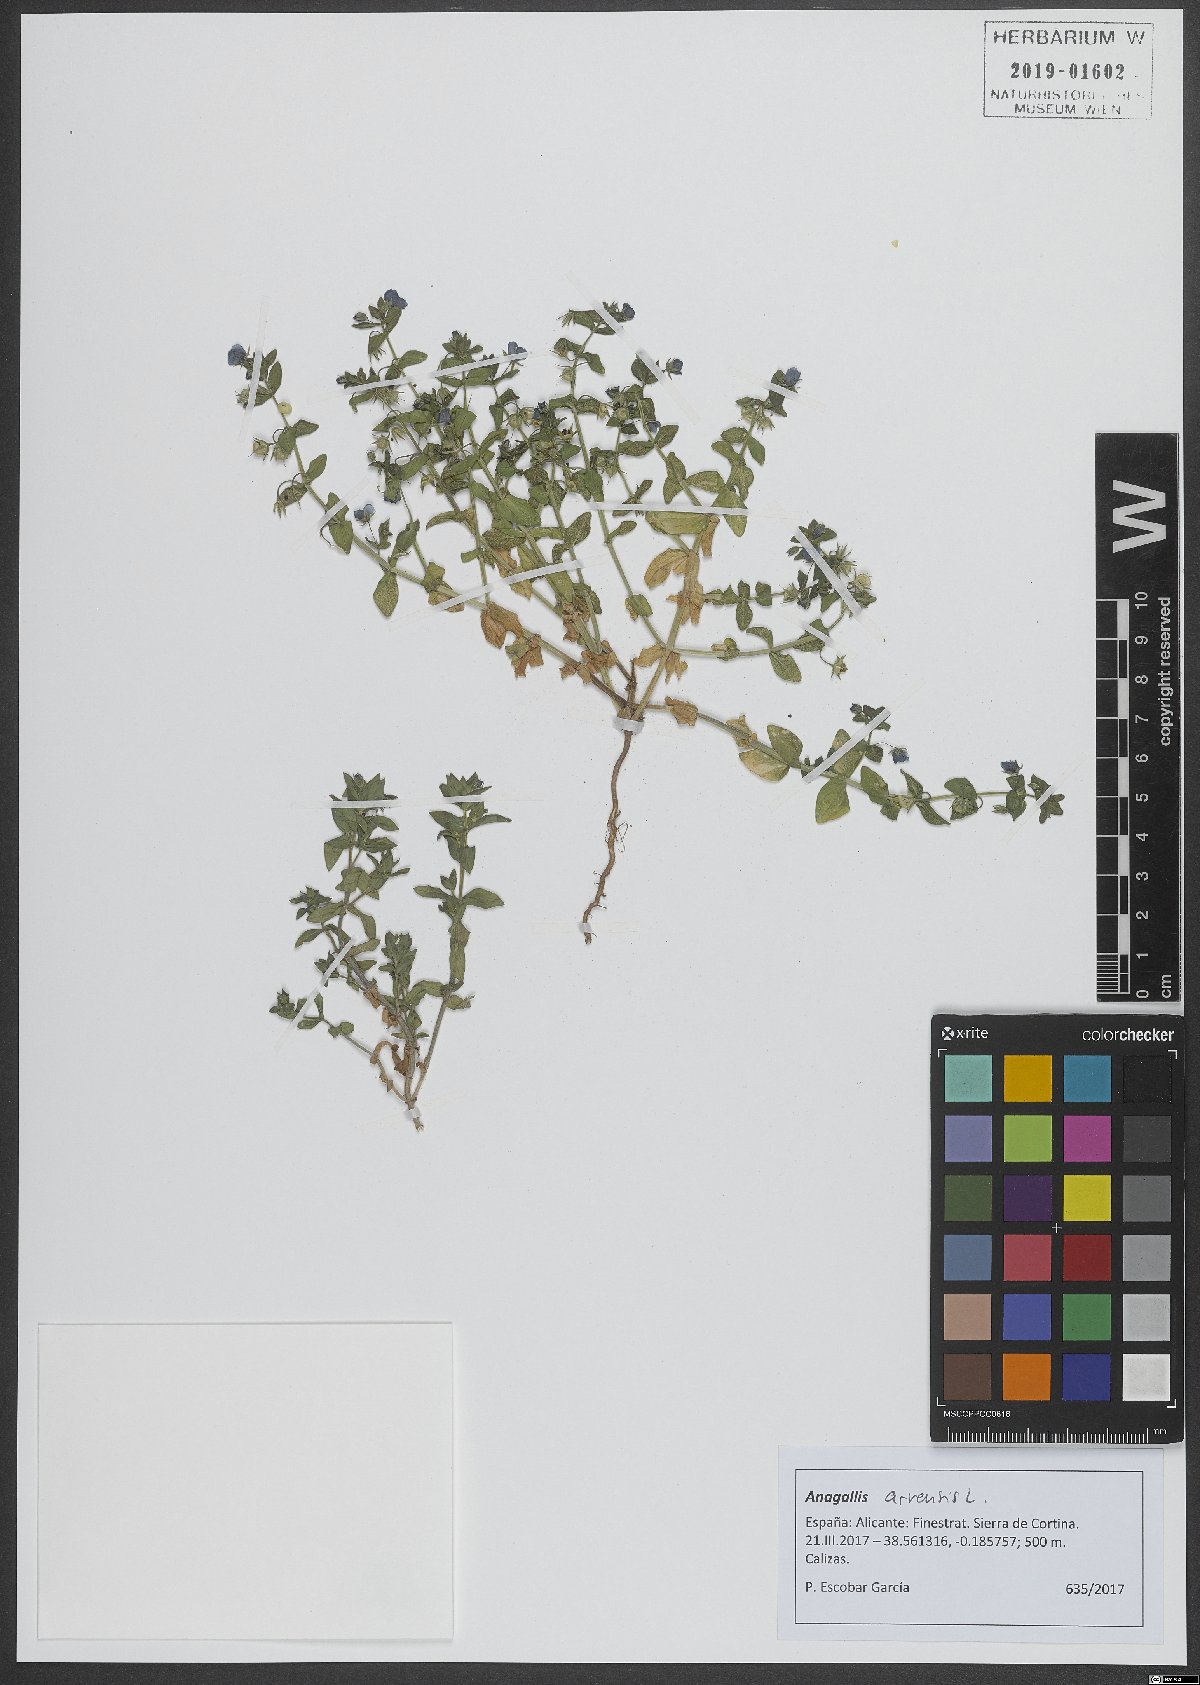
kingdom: Plantae
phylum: Tracheophyta
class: Magnoliopsida
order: Ericales
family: Primulaceae
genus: Lysimachia
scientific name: Lysimachia arvensis
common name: Scarlet pimpernel
